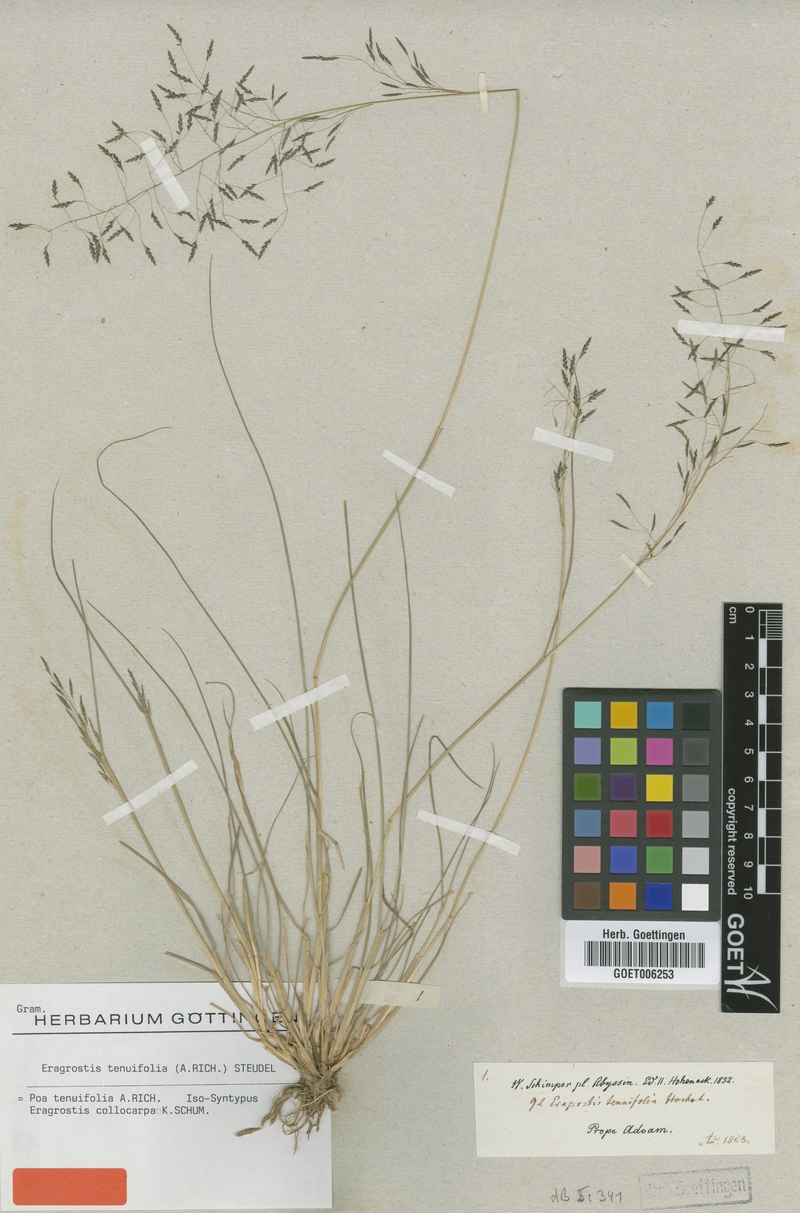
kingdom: Plantae
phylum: Tracheophyta
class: Liliopsida
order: Poales
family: Poaceae
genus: Eragrostis
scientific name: Eragrostis tenuifolia
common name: Elastic grass
